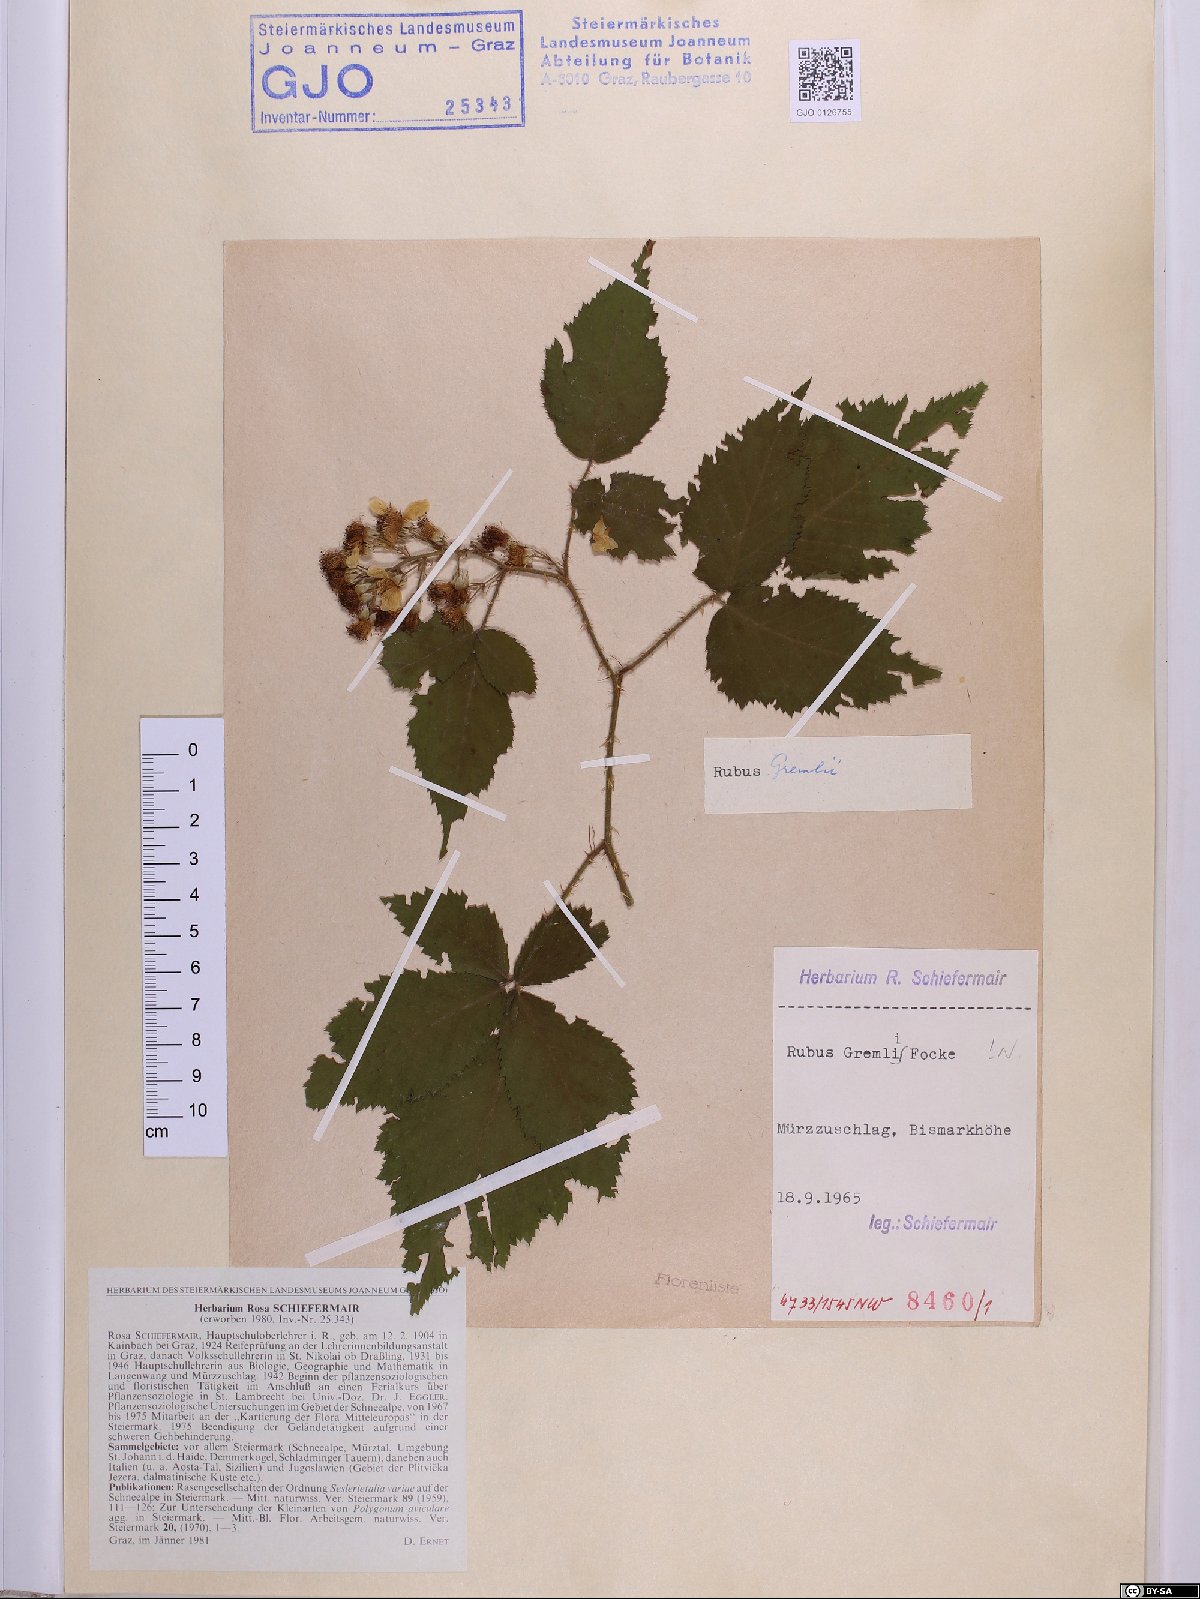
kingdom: Plantae
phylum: Tracheophyta
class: Magnoliopsida
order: Rosales
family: Rosaceae
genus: Rubus
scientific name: Rubus gremlii
